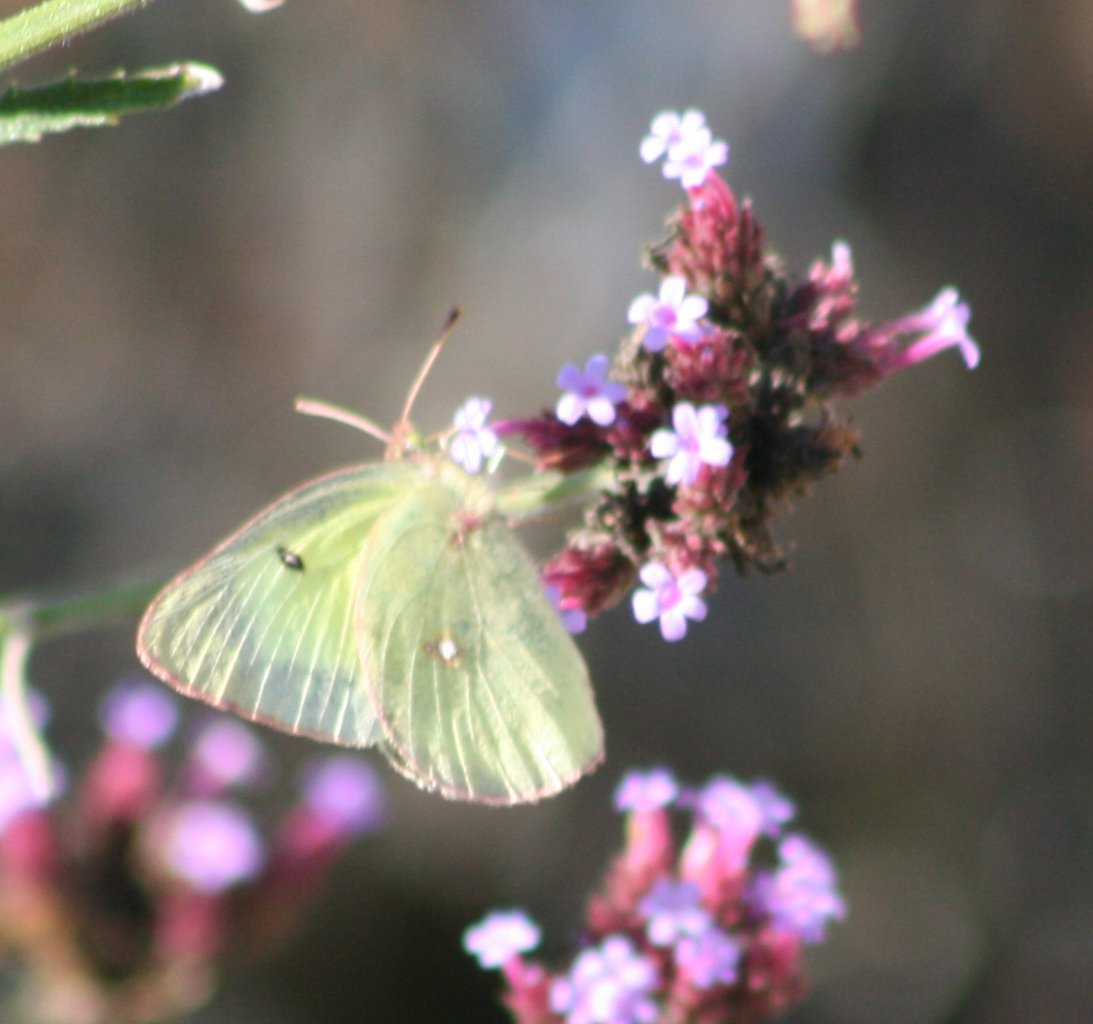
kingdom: Animalia
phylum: Arthropoda
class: Insecta
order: Lepidoptera
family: Pieridae
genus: Colias
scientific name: Colias philodice
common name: Clouded Sulphur
